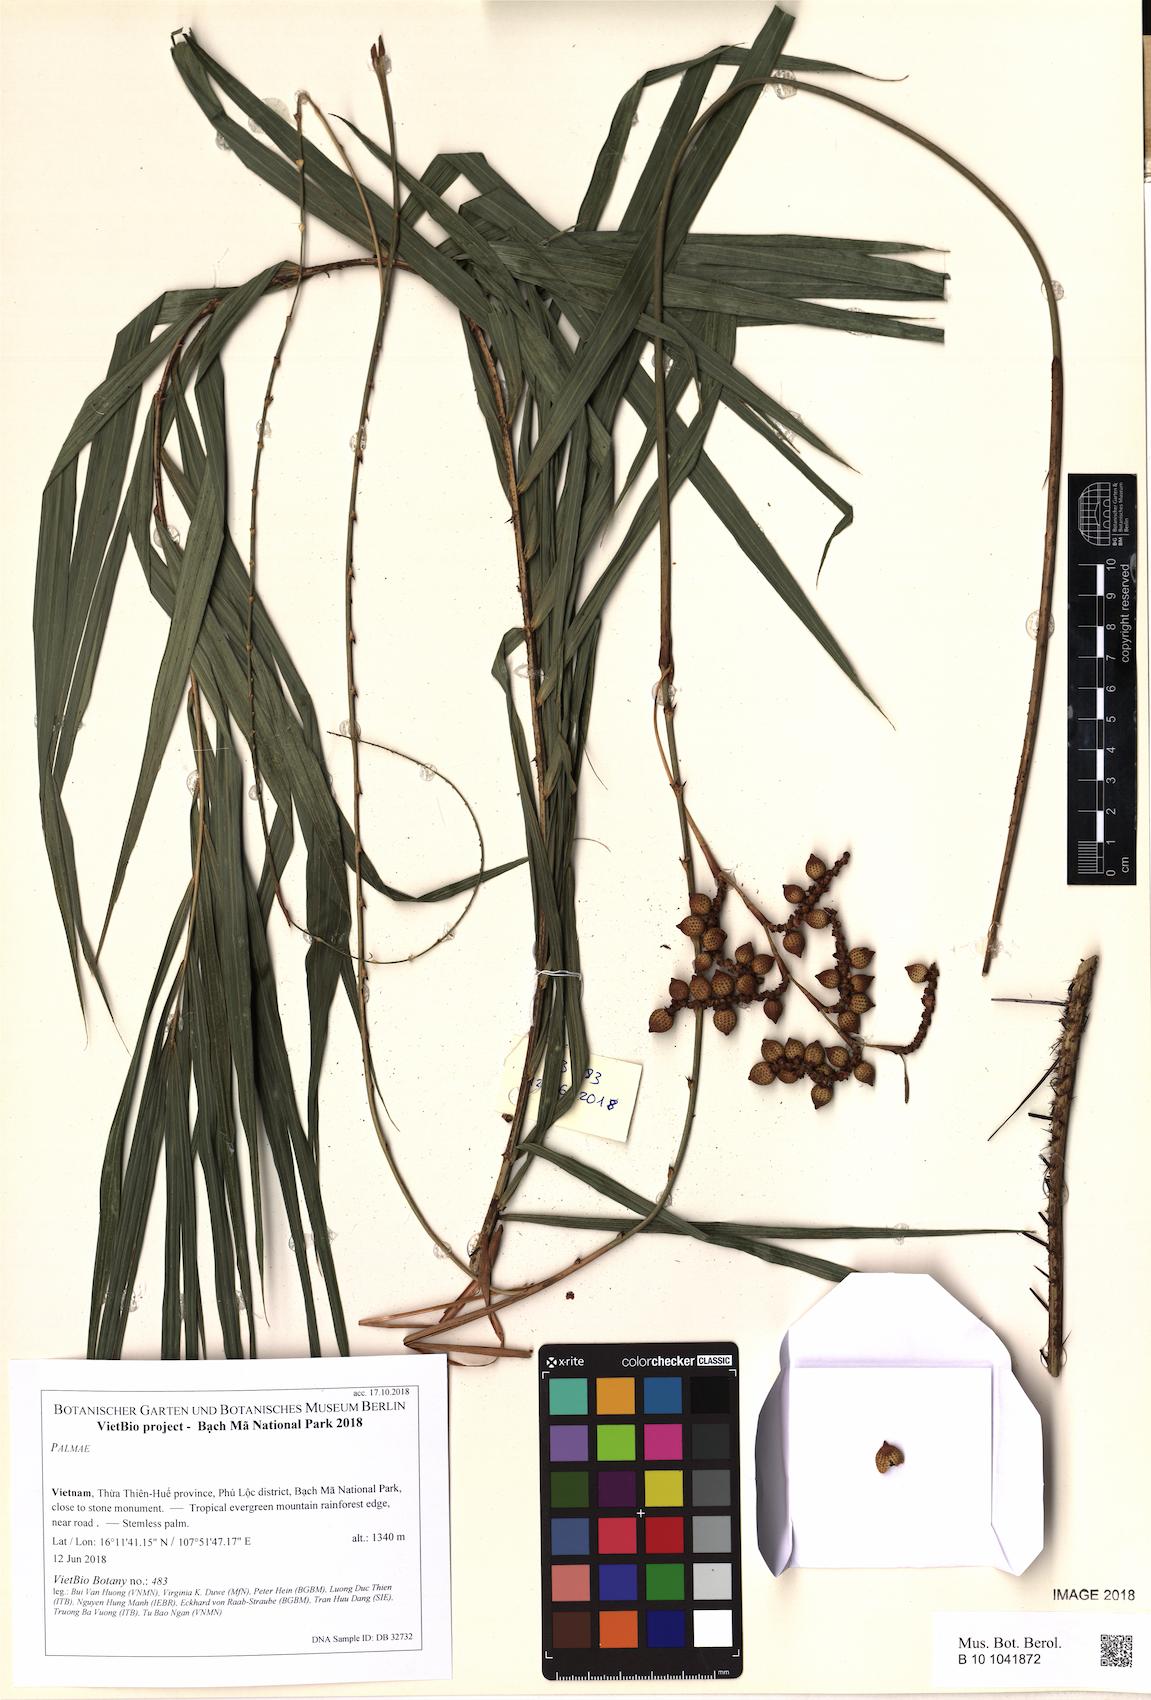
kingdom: Plantae
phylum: Tracheophyta
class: Liliopsida
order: Arecales
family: Arecaceae
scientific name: Arecaceae
